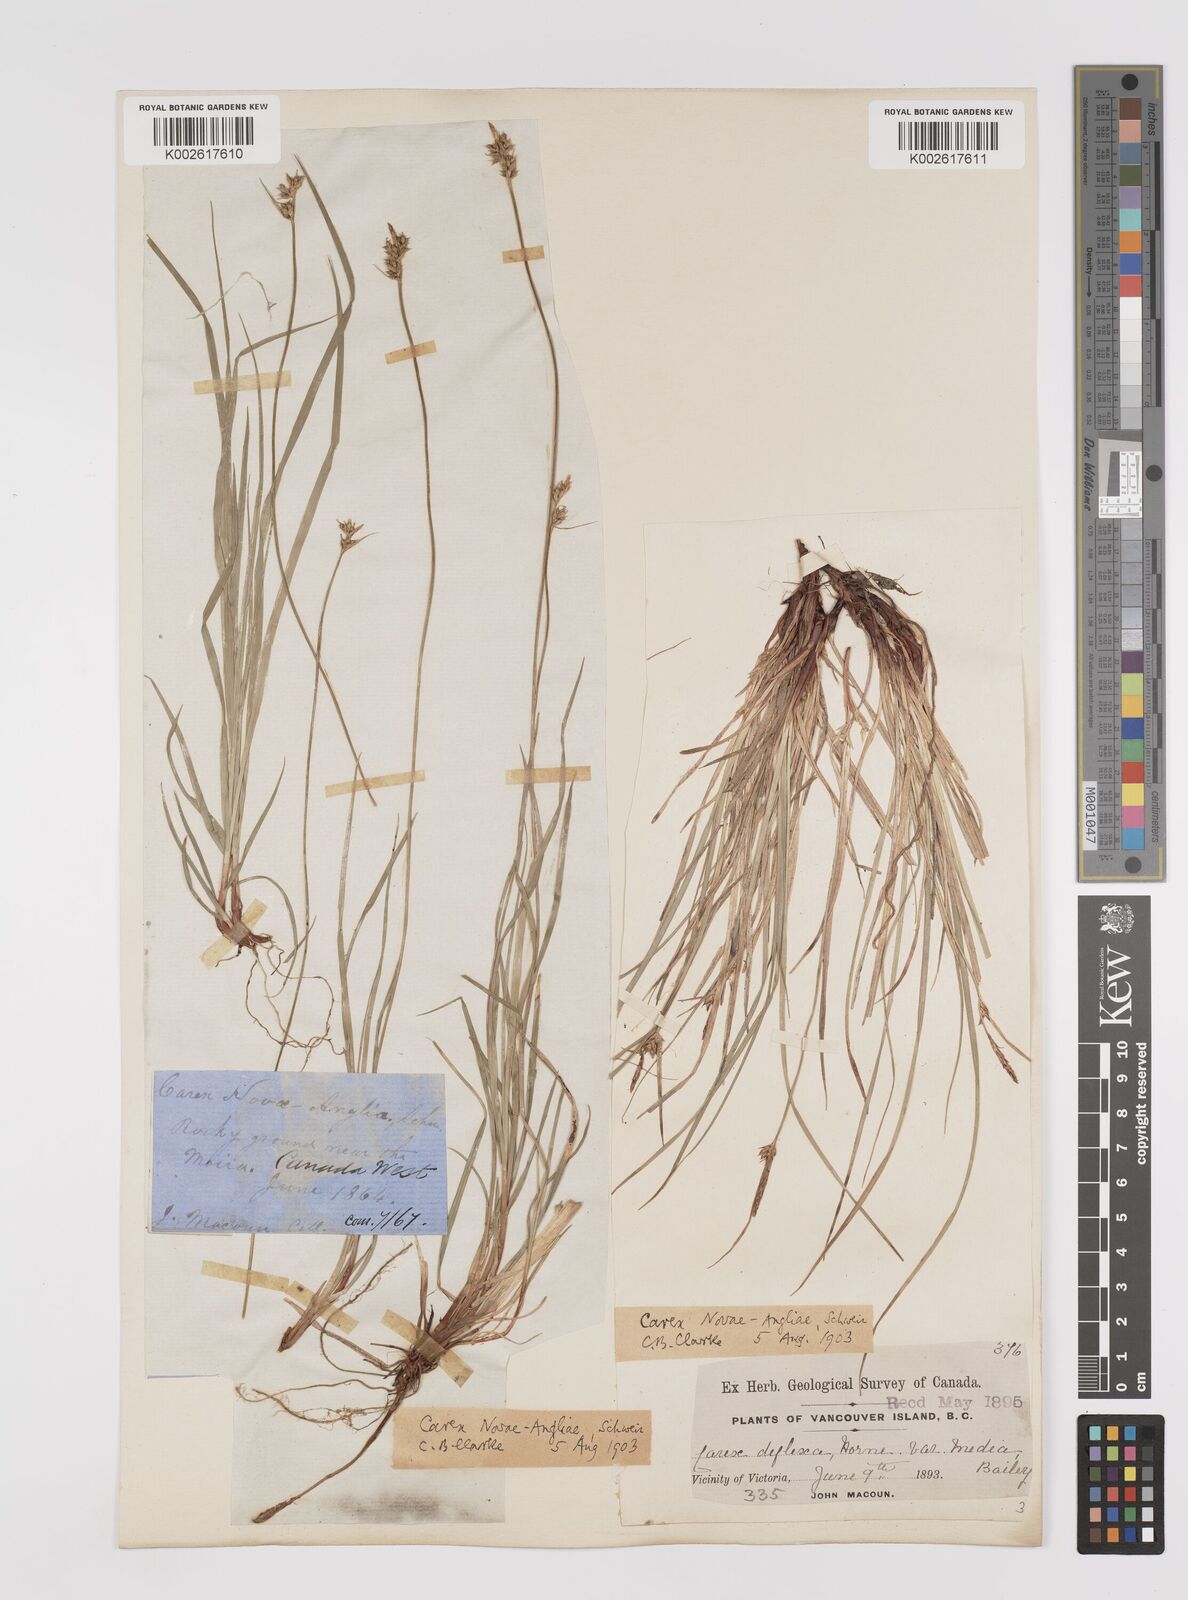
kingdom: Plantae
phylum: Tracheophyta
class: Liliopsida
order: Poales
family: Cyperaceae
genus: Carex
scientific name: Carex rossii
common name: Ross' sedge
